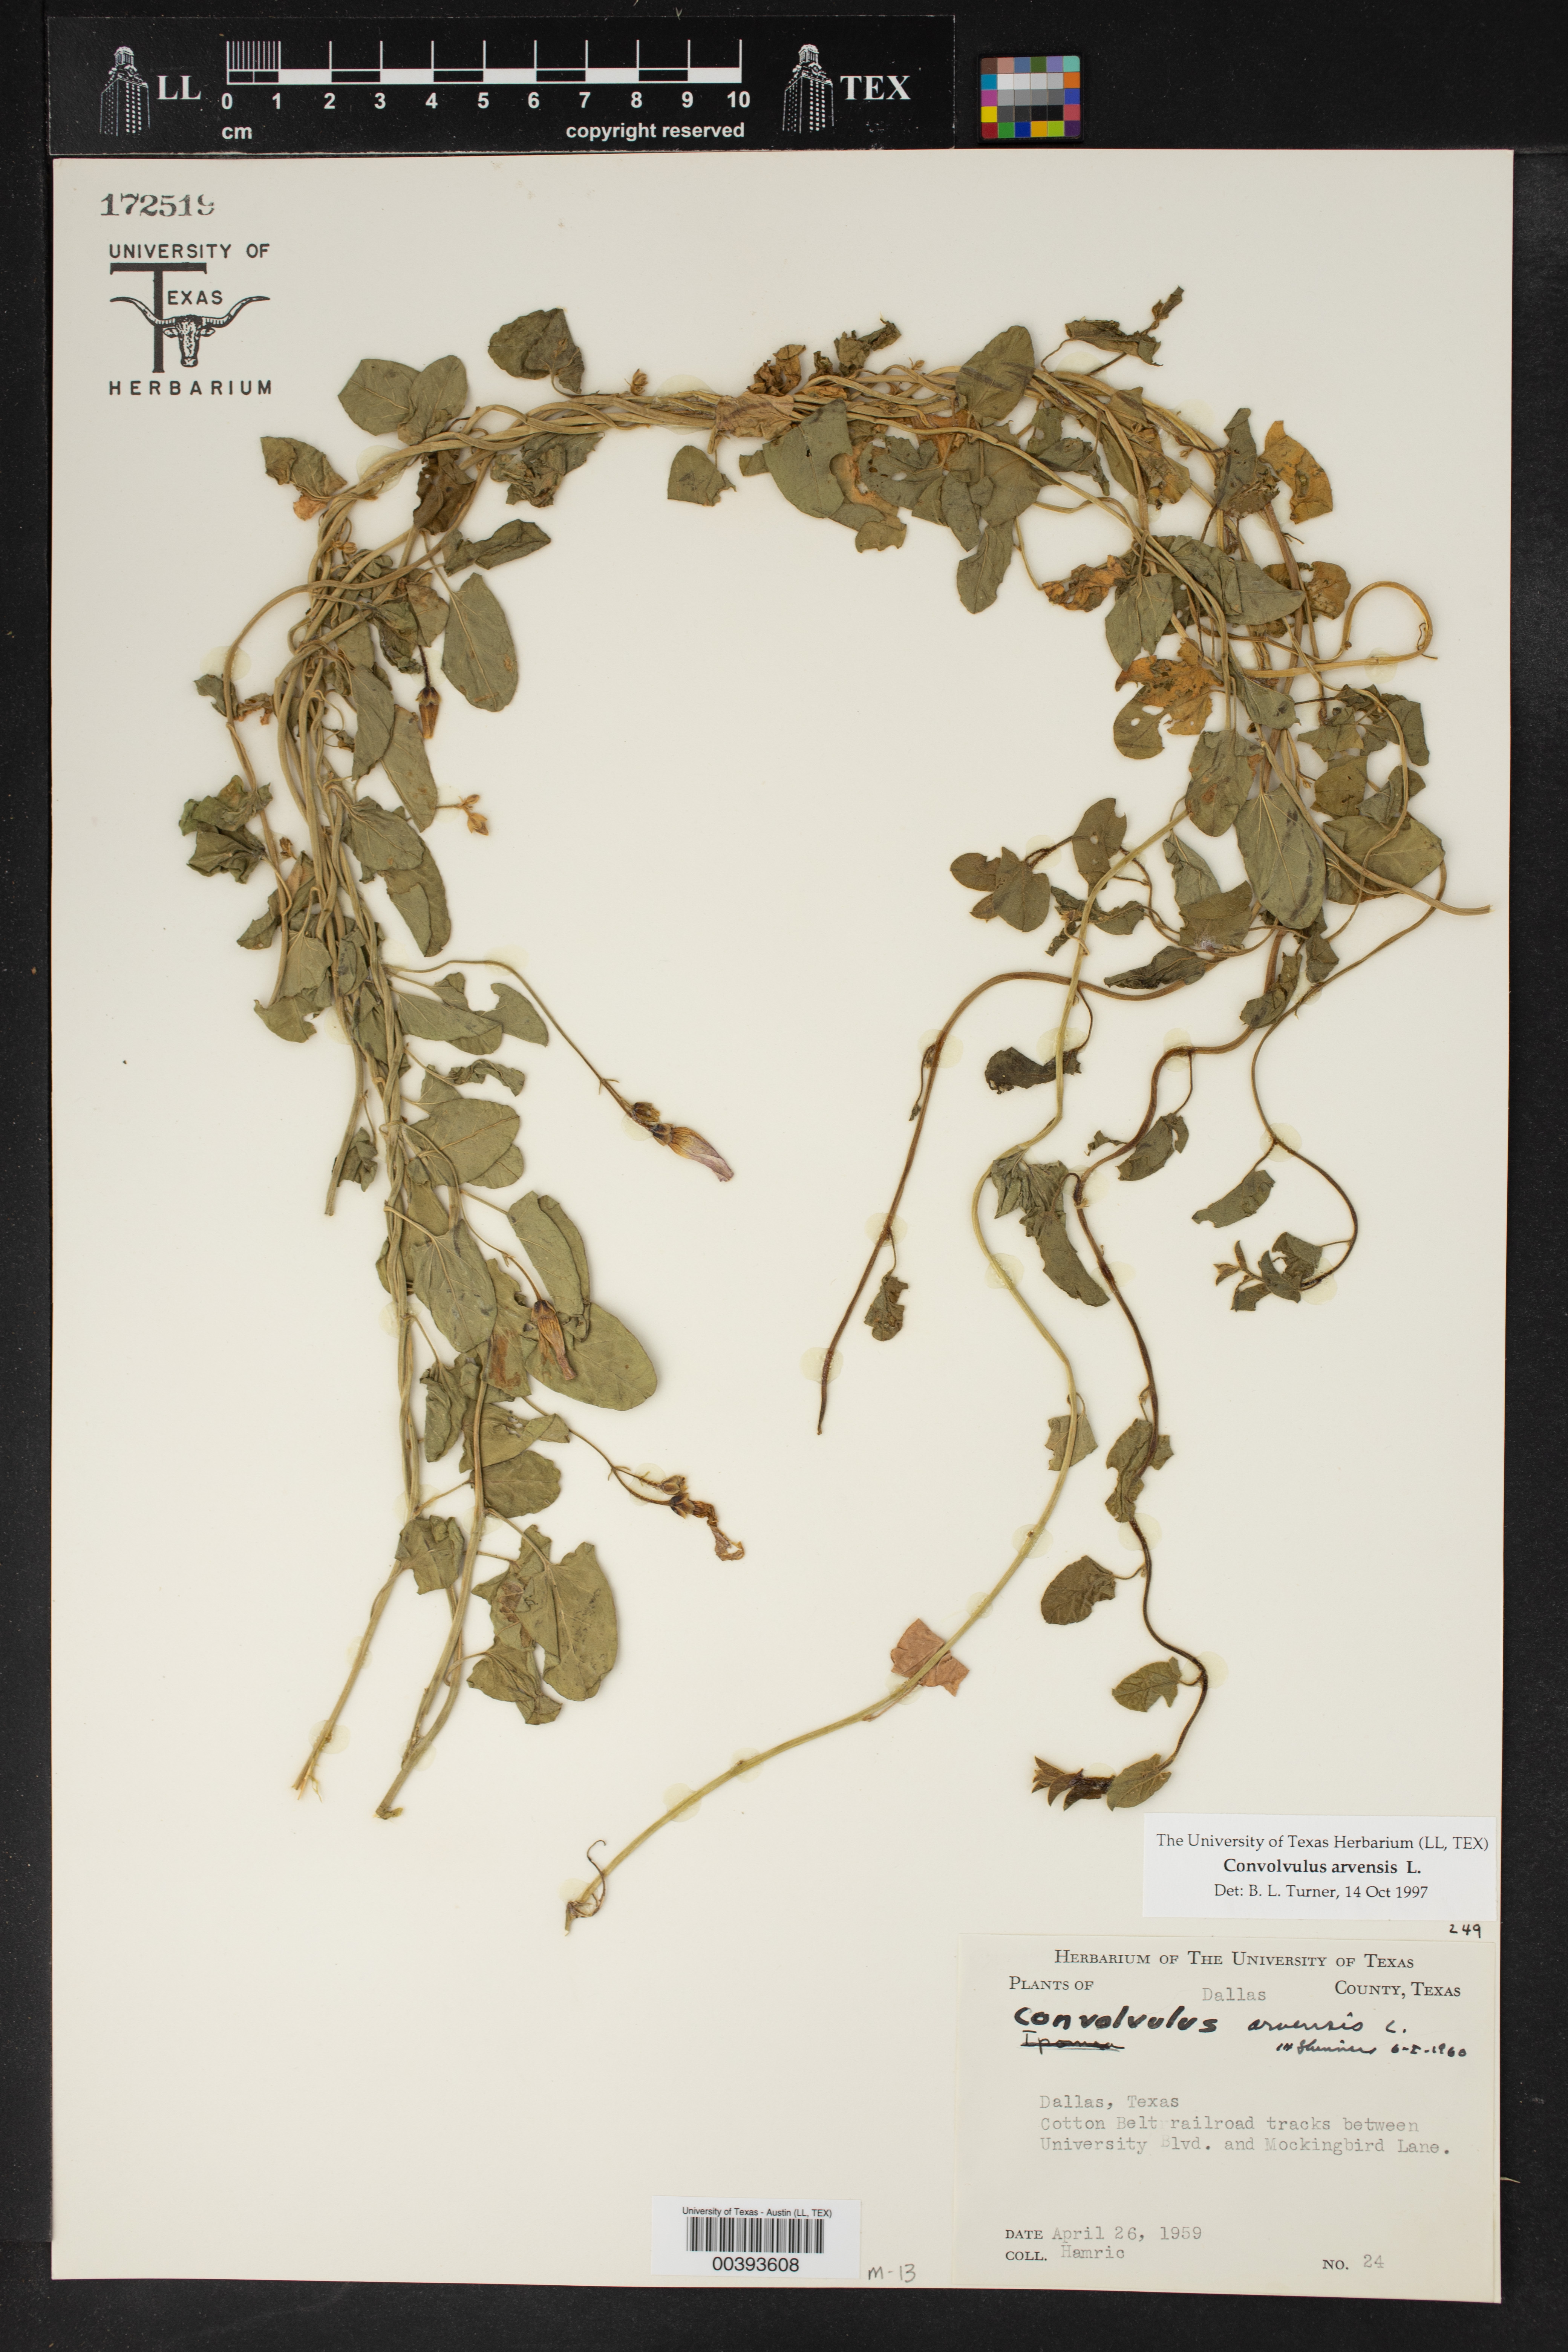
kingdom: Plantae
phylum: Tracheophyta
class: Magnoliopsida
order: Solanales
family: Convolvulaceae
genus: Convolvulus
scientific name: Convolvulus arvensis
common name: Field bindweed
